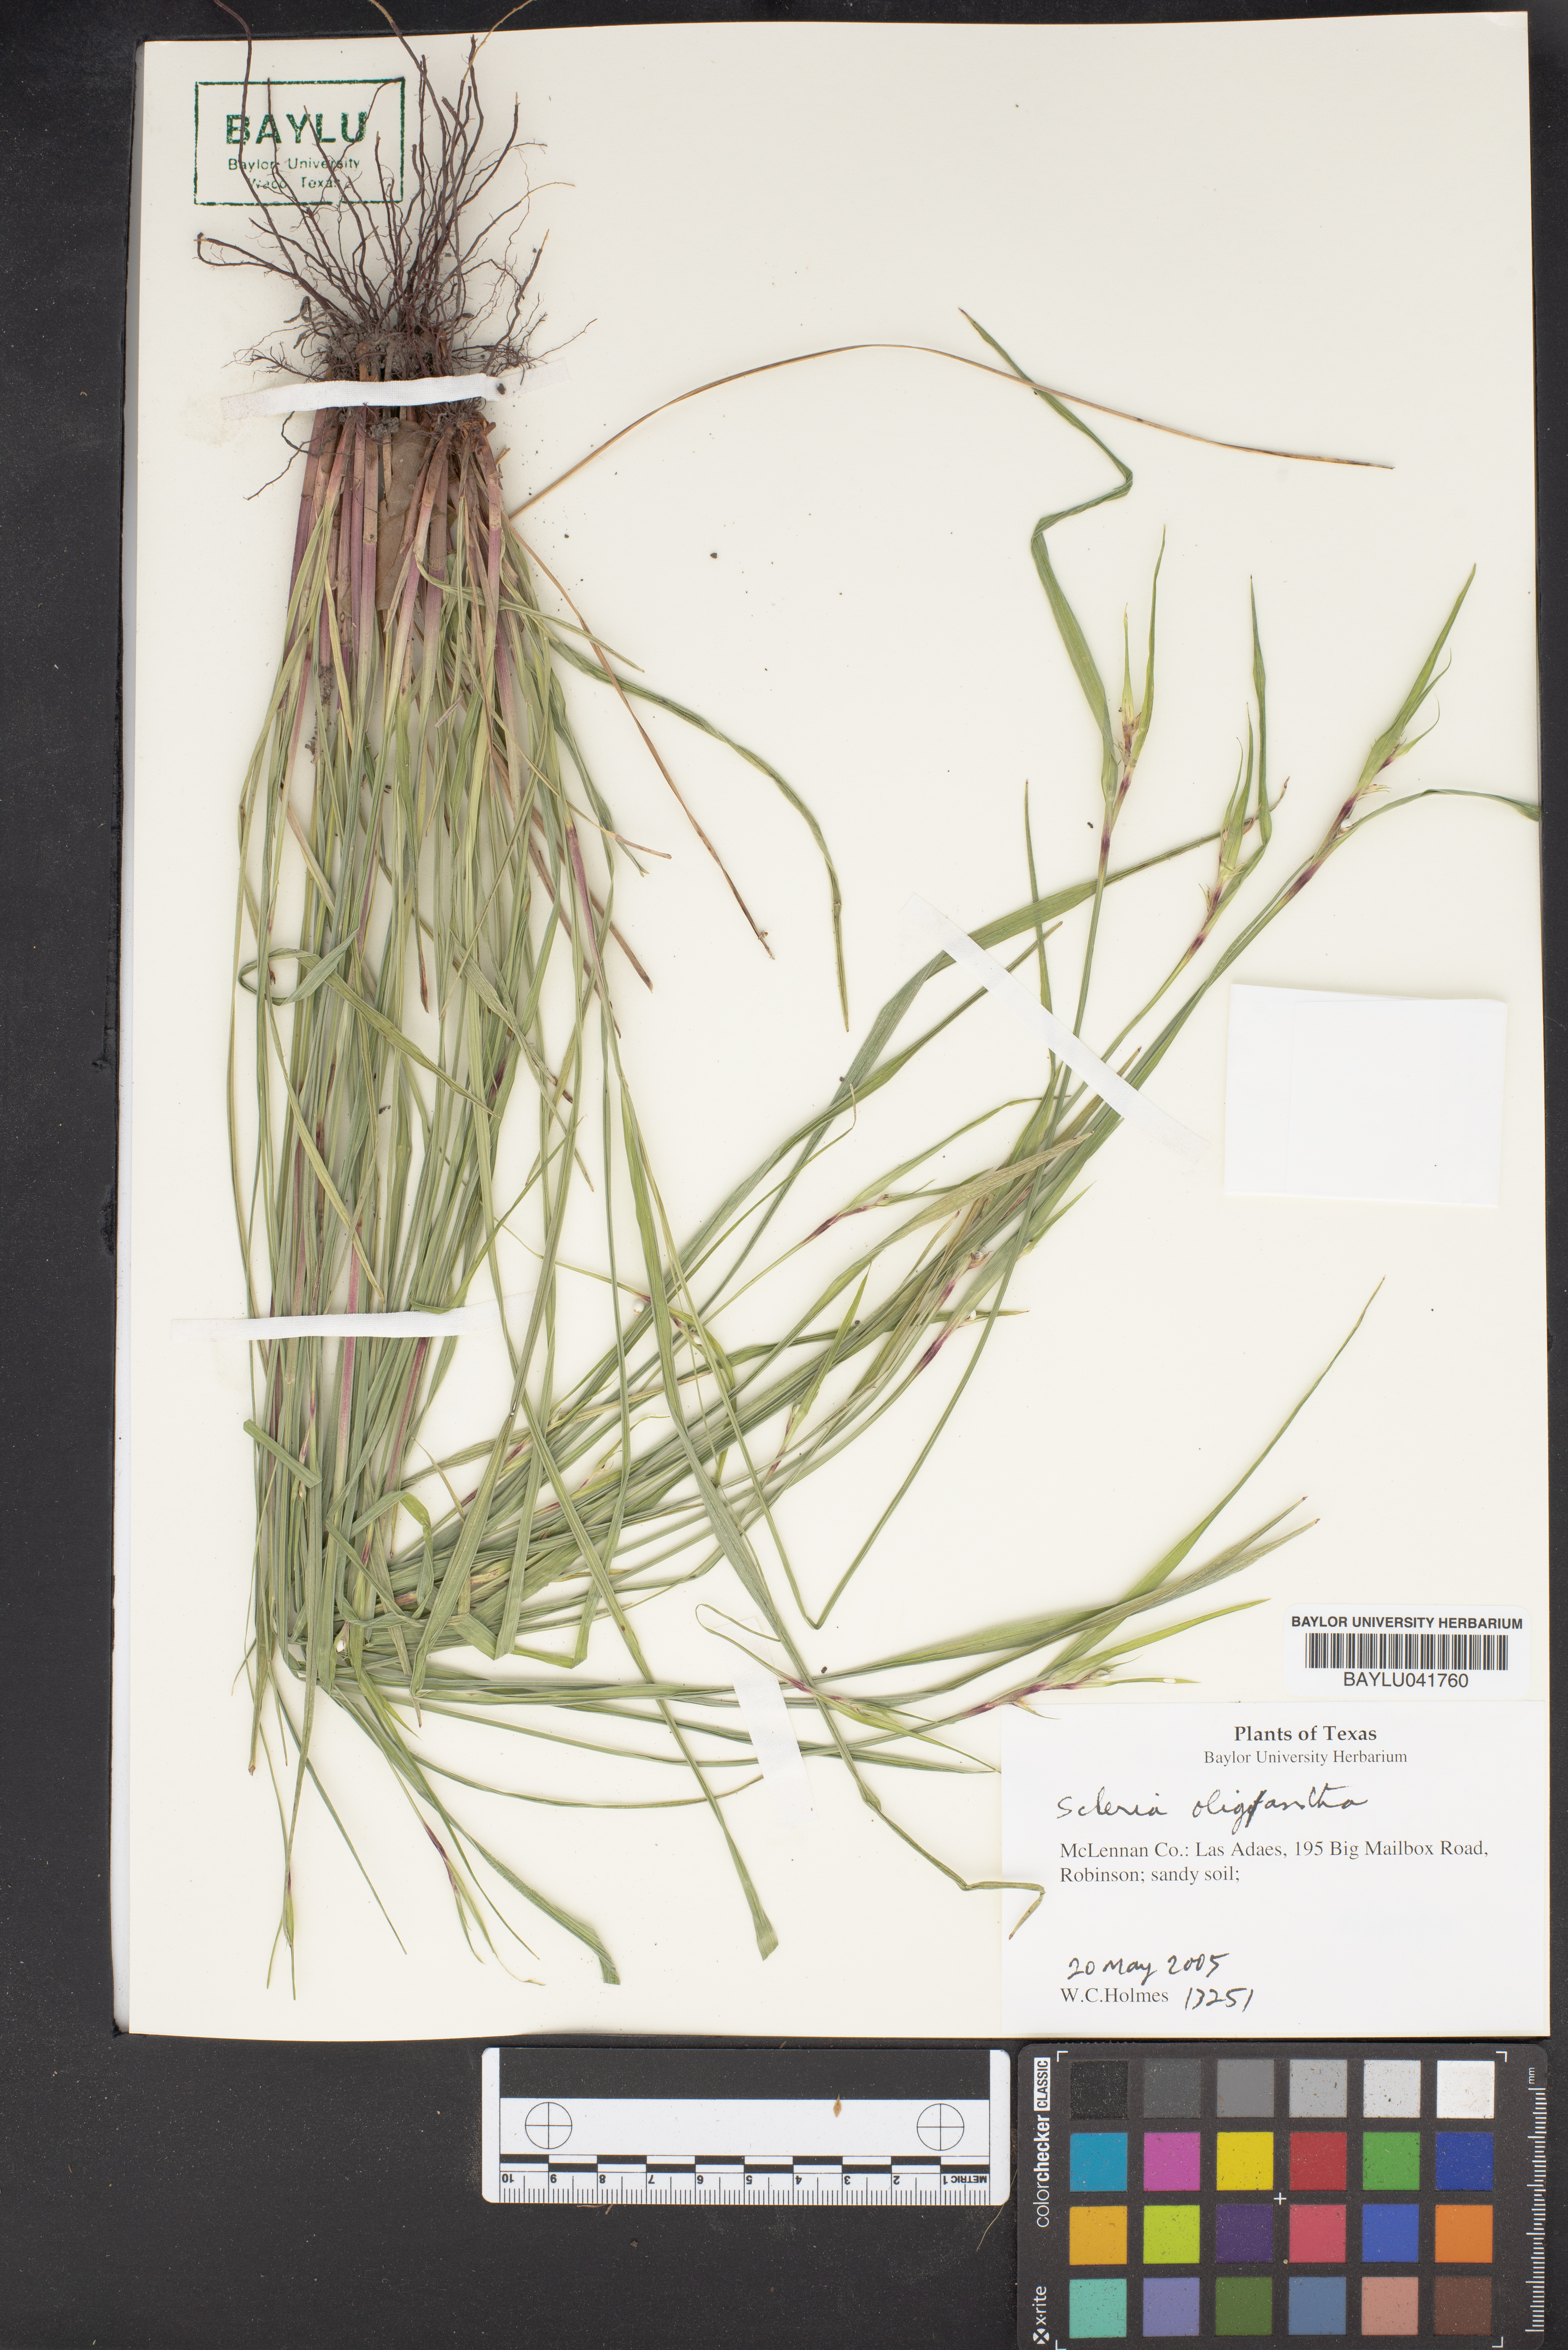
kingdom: Plantae
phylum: Tracheophyta
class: Liliopsida
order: Poales
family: Cyperaceae
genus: Scleria
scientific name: Scleria oligantha
